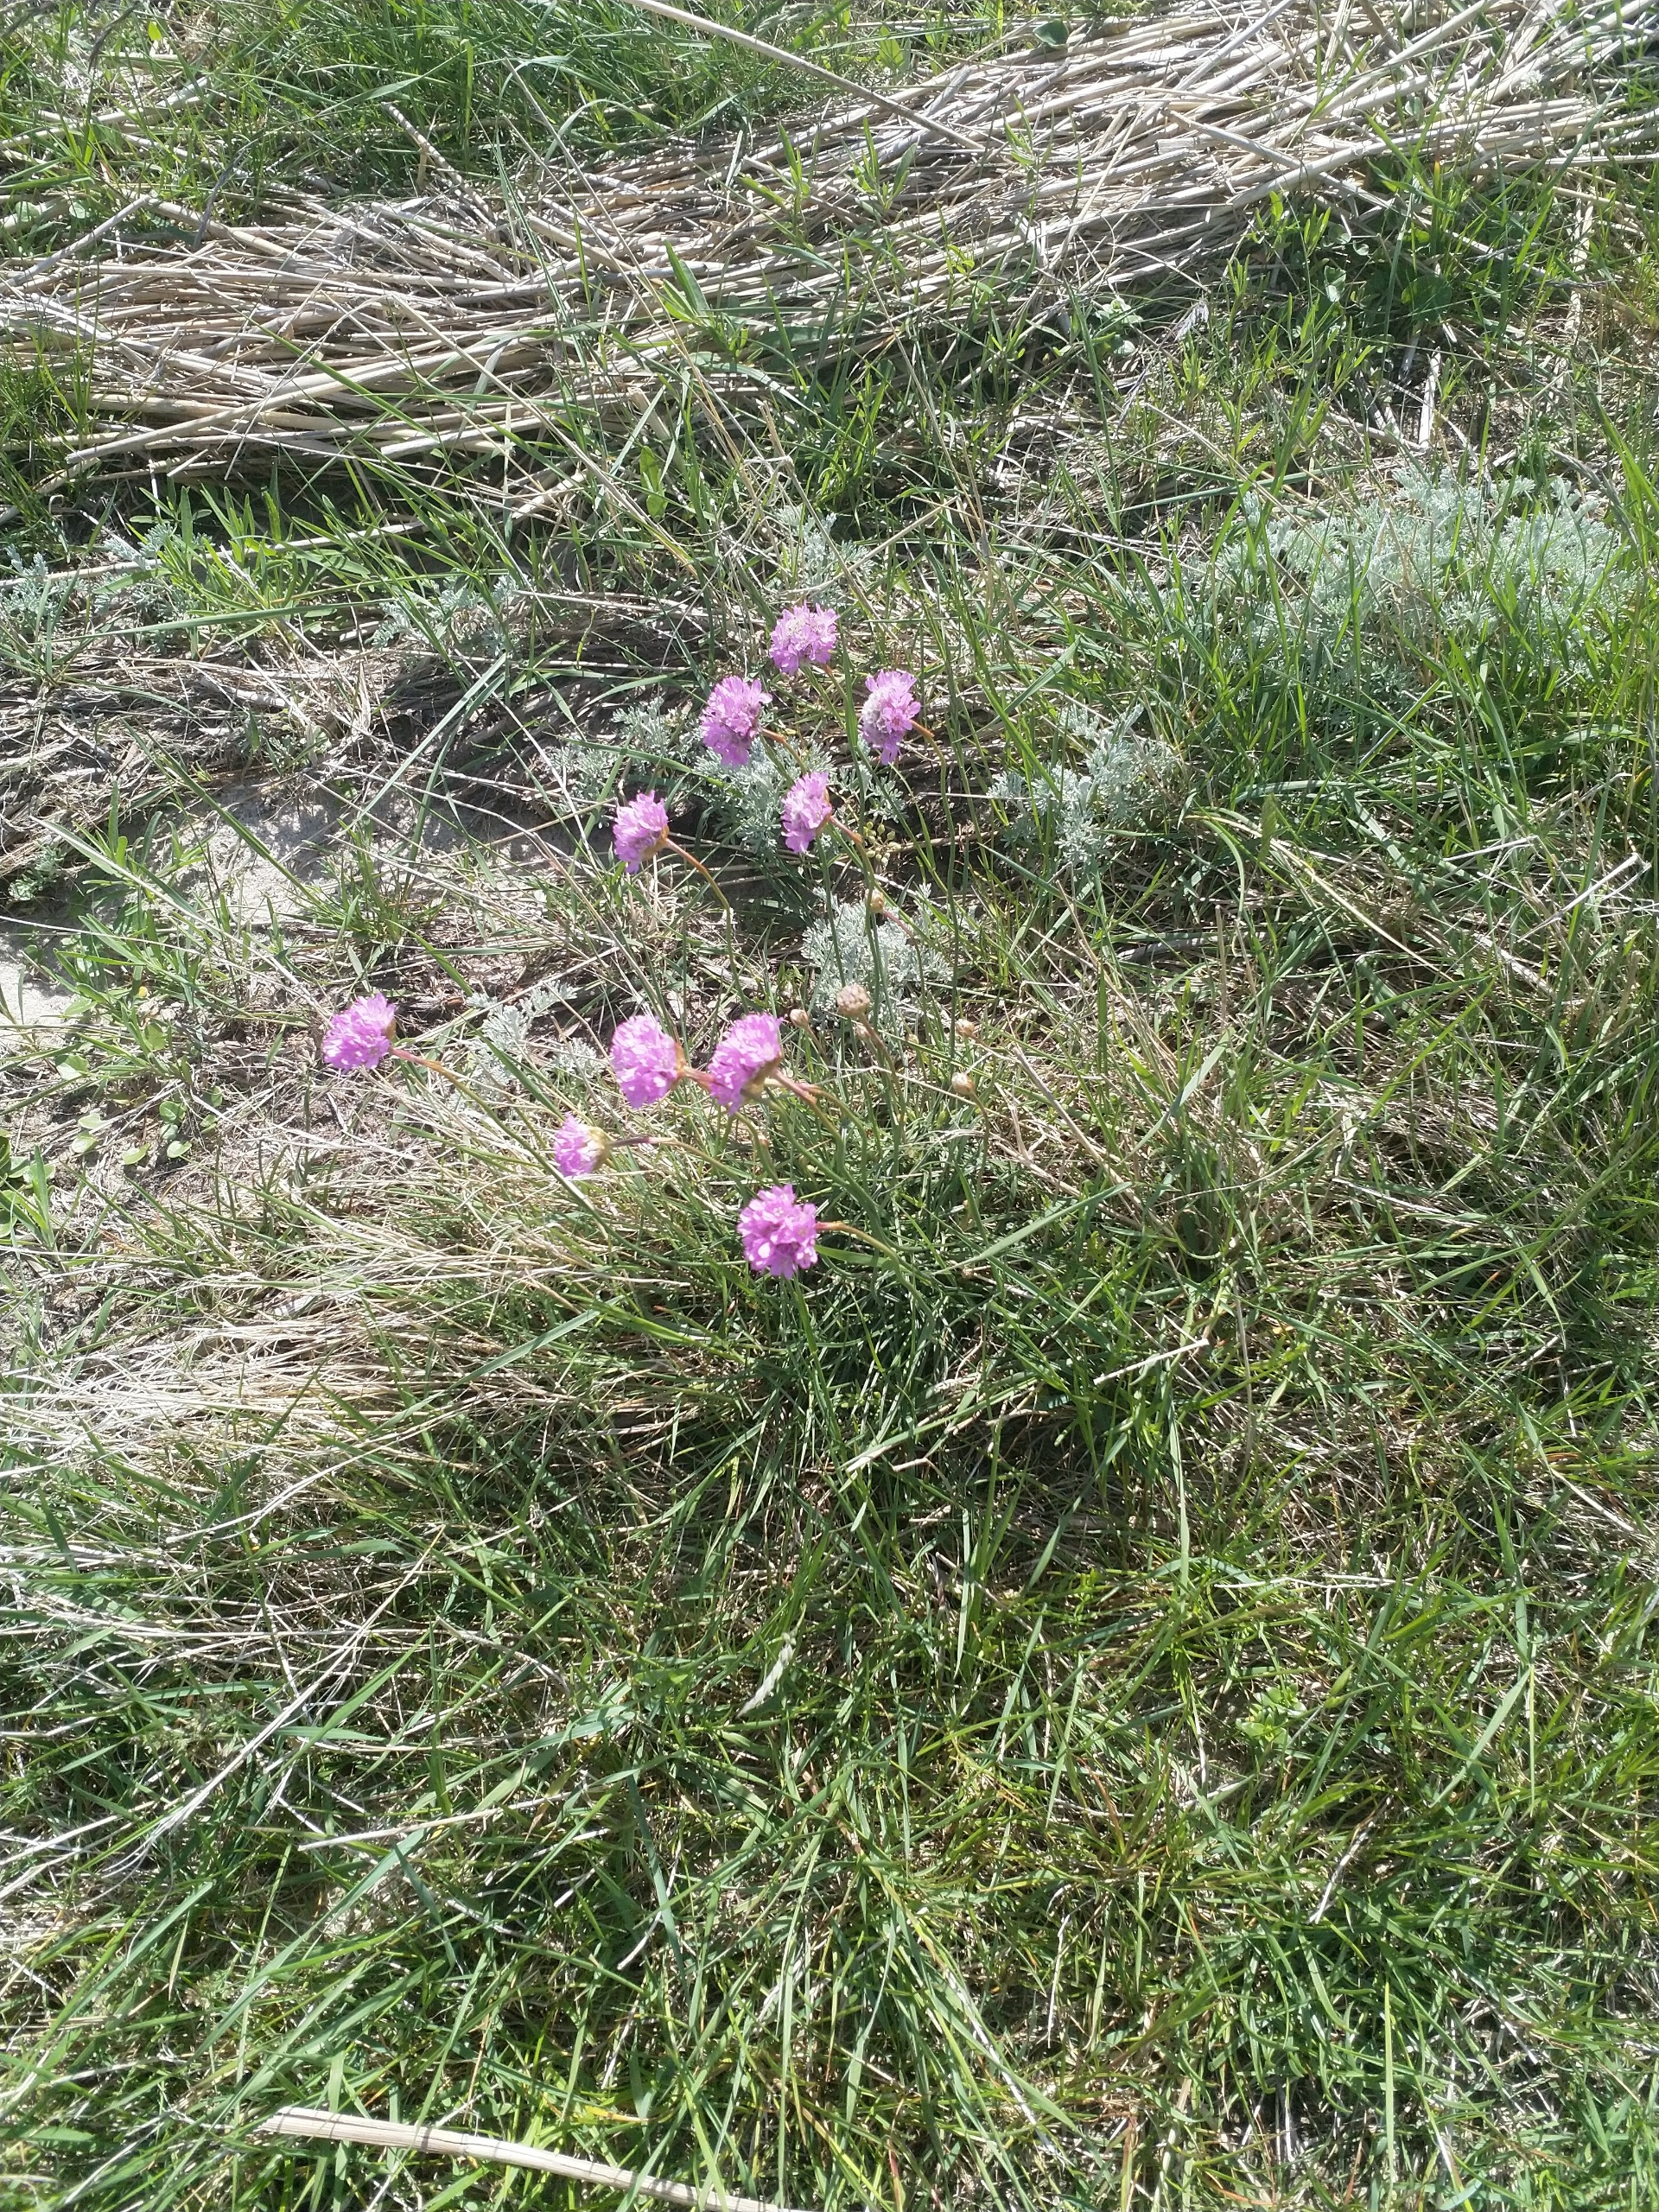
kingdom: Plantae
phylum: Tracheophyta
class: Magnoliopsida
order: Caryophyllales
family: Plumbaginaceae
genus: Armeria
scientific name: Armeria maritima
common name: Vej-engelskgræs
